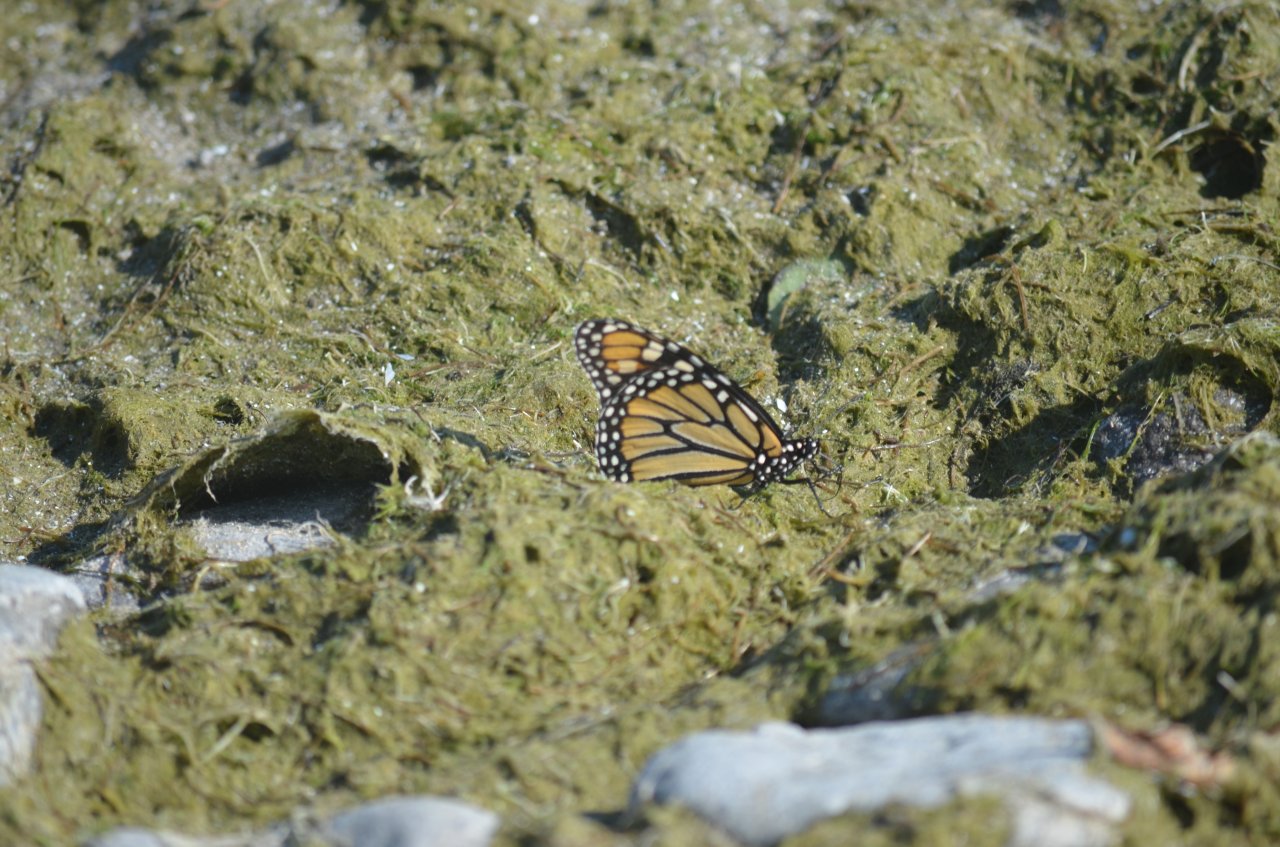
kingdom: Animalia
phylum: Arthropoda
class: Insecta
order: Lepidoptera
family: Nymphalidae
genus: Danaus
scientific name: Danaus plexippus
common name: Monarch
